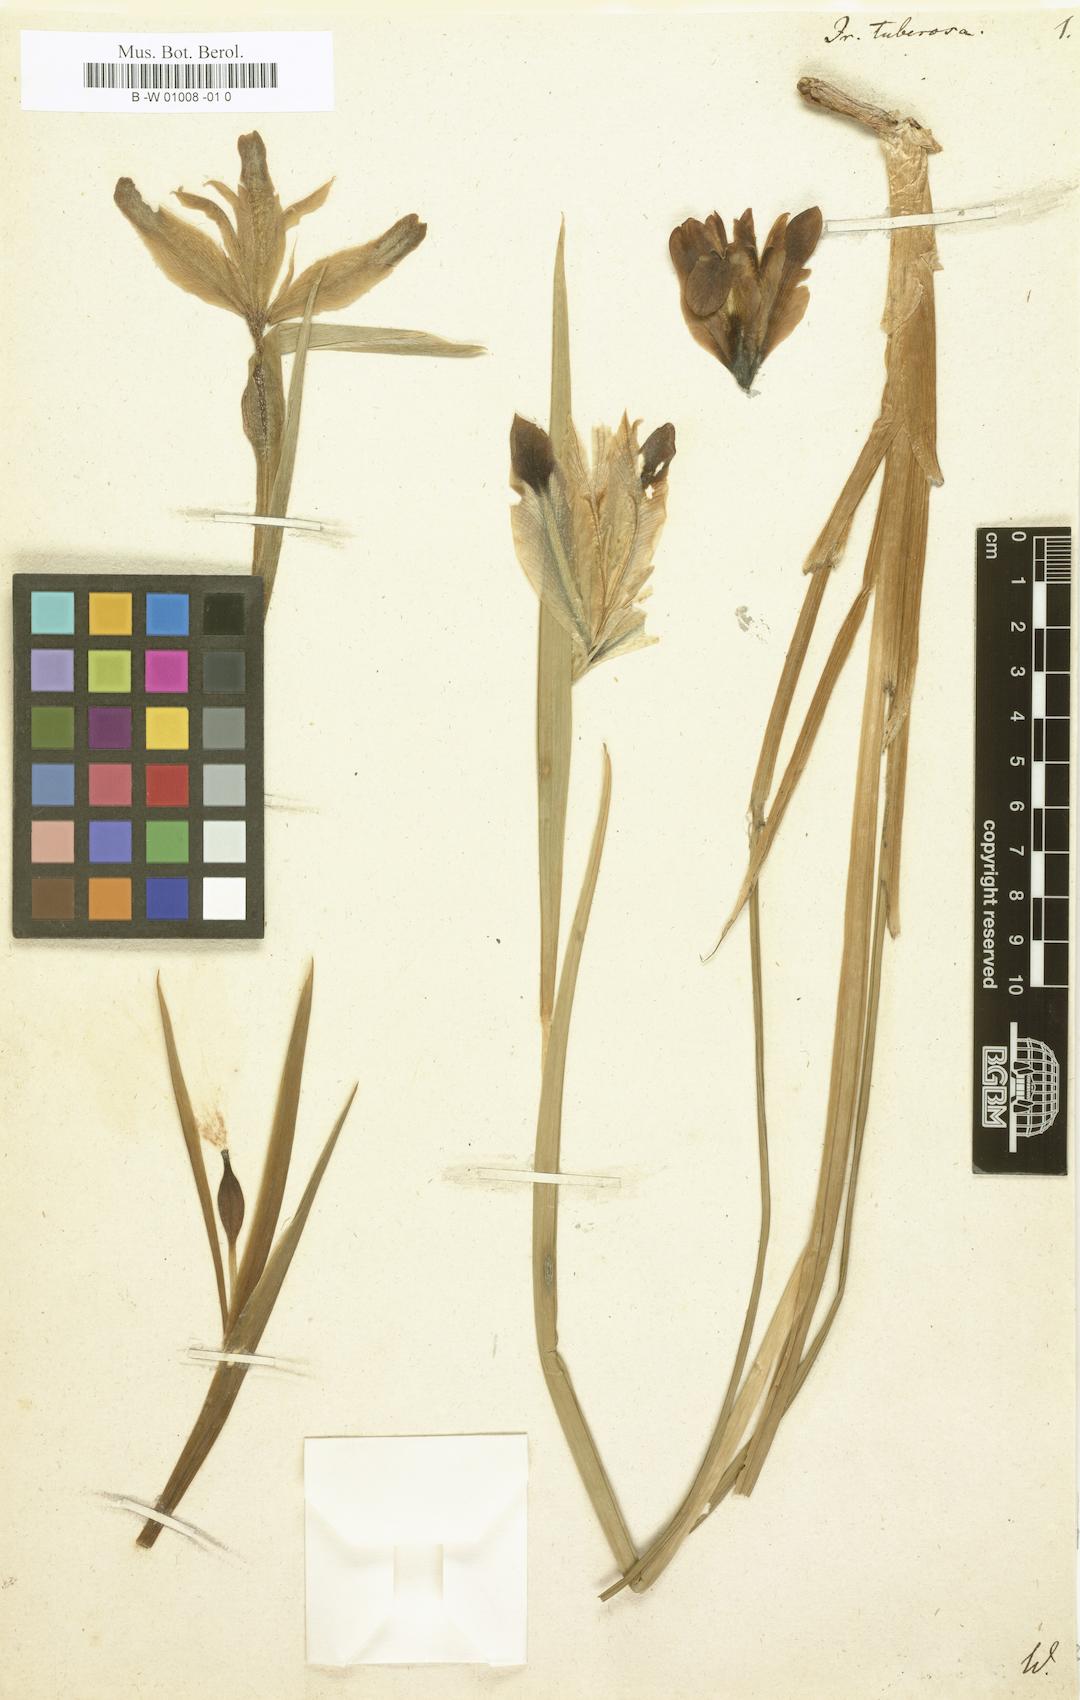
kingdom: Plantae
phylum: Tracheophyta
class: Liliopsida
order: Asparagales
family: Iridaceae
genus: Iris
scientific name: Iris tuberosa
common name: Snake's-head iris
